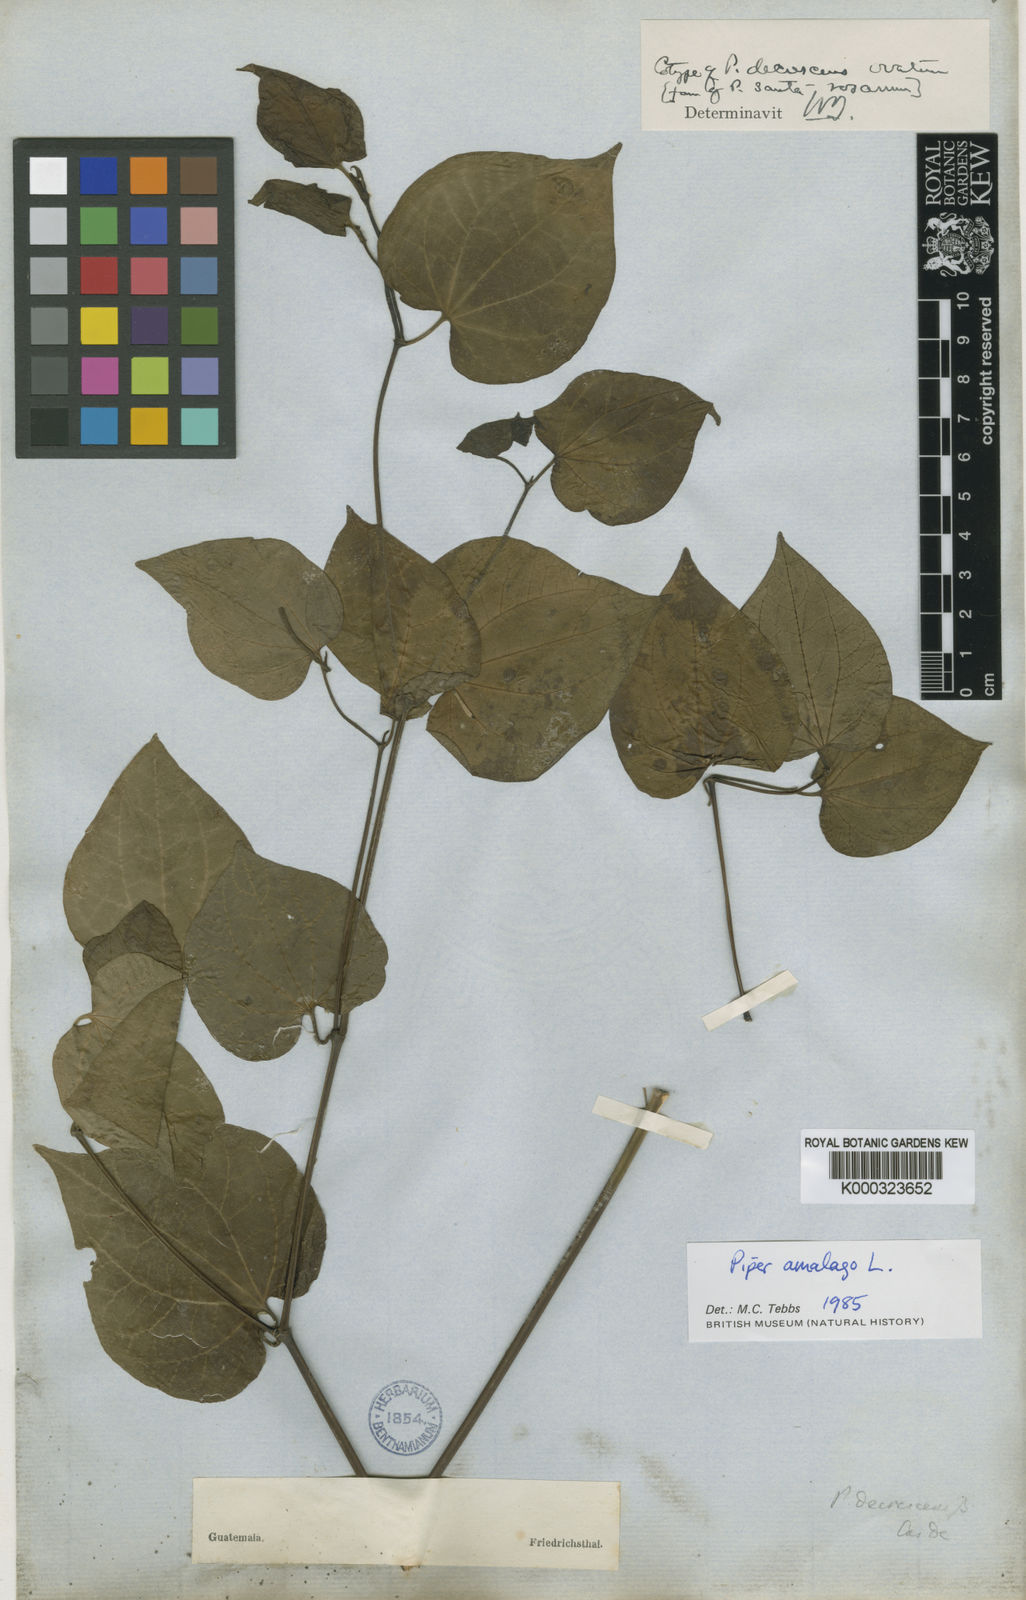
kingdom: Plantae
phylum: Tracheophyta
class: Magnoliopsida
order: Piperales
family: Piperaceae
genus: Piper
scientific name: Piper amalago
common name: Pepper-elder
